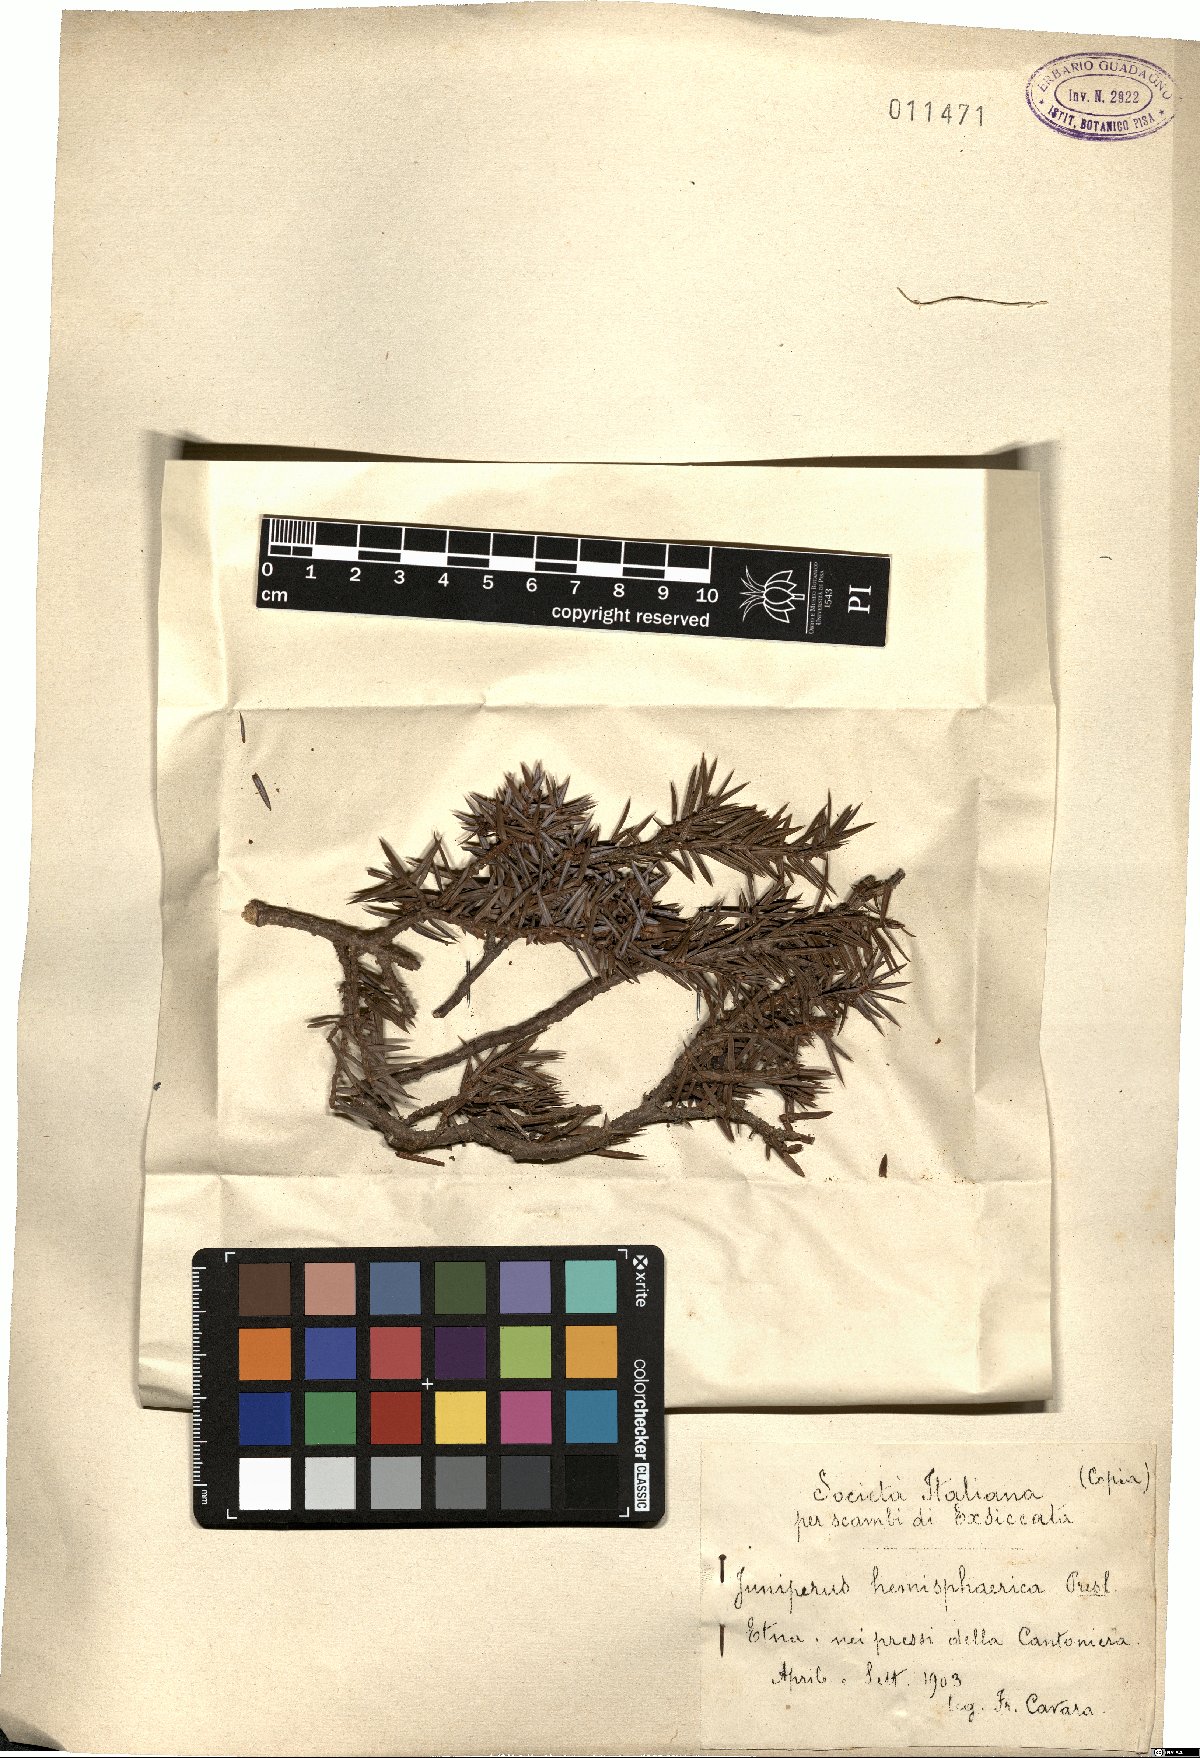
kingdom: Plantae
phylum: Tracheophyta
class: Pinopsida
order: Pinales
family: Cupressaceae
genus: Juniperus
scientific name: Juniperus communis
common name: Common juniper
